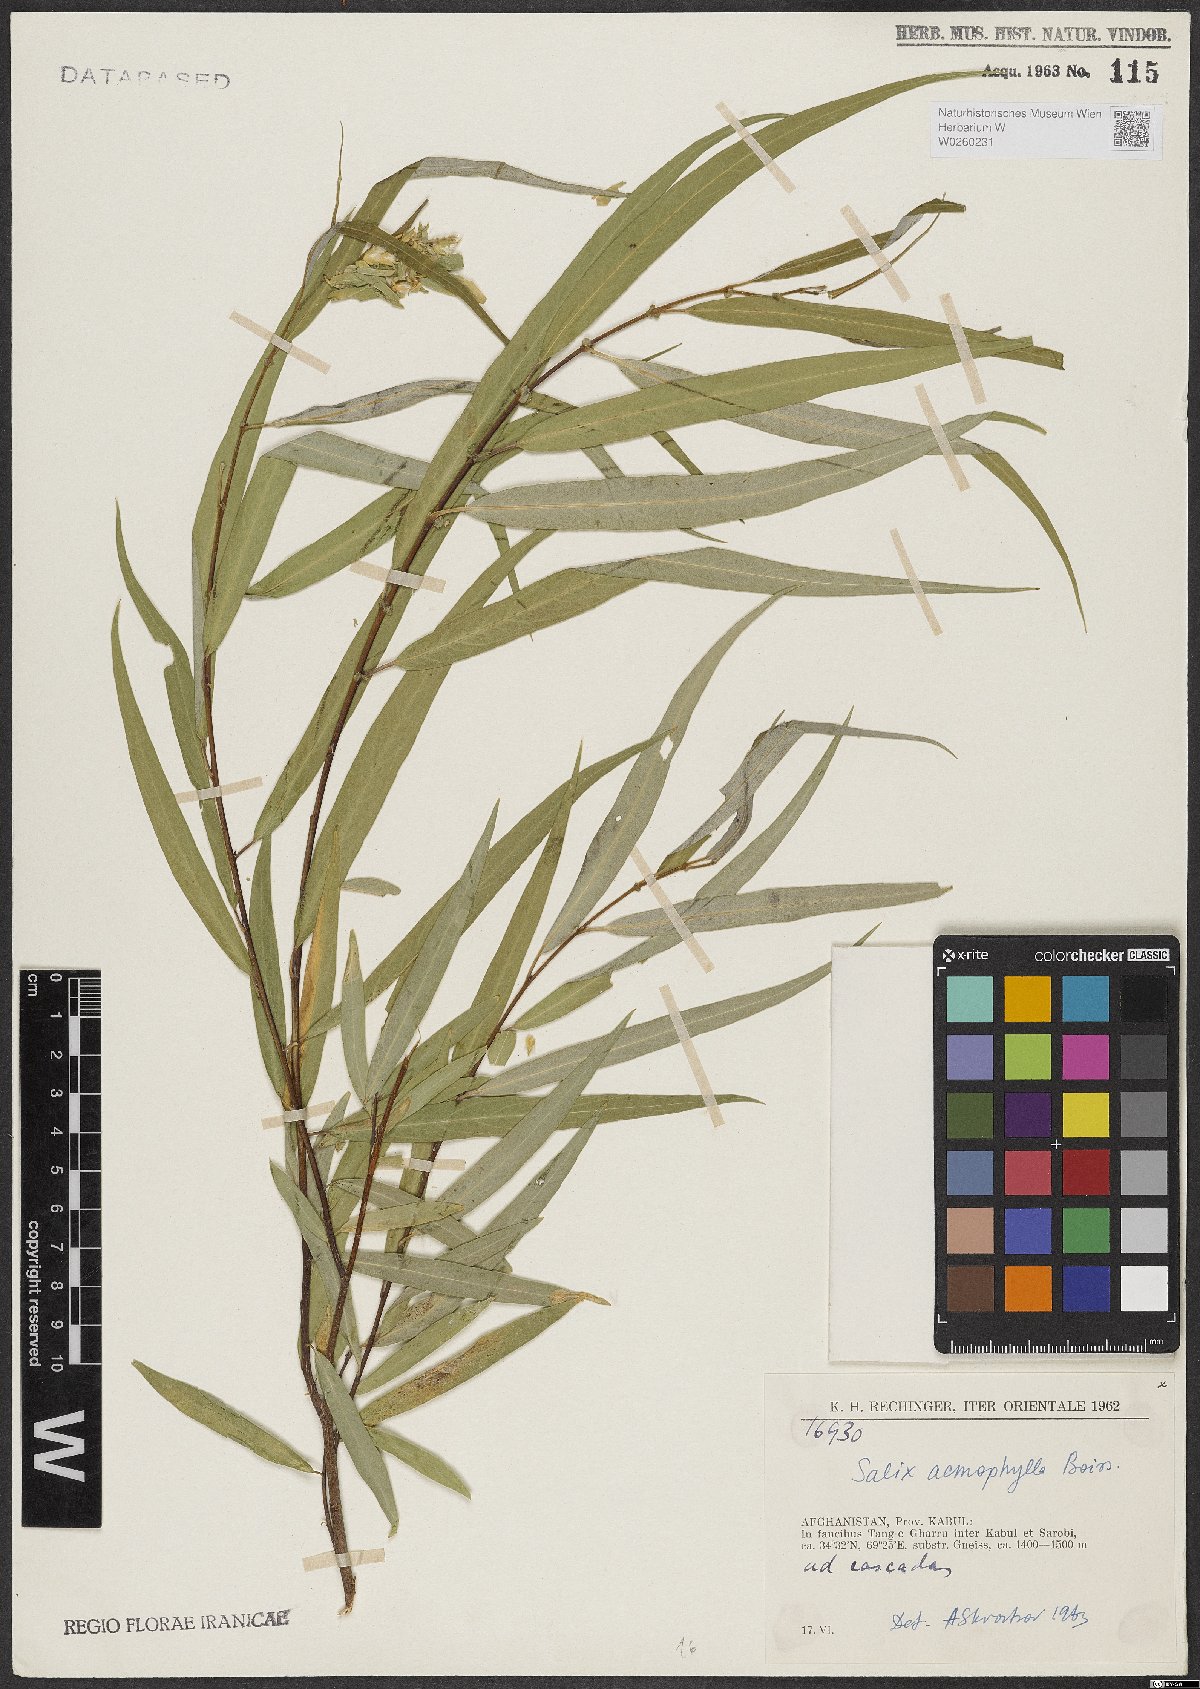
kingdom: Plantae
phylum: Tracheophyta
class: Magnoliopsida
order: Malpighiales
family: Salicaceae
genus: Salix
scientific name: Salix acmophylla
